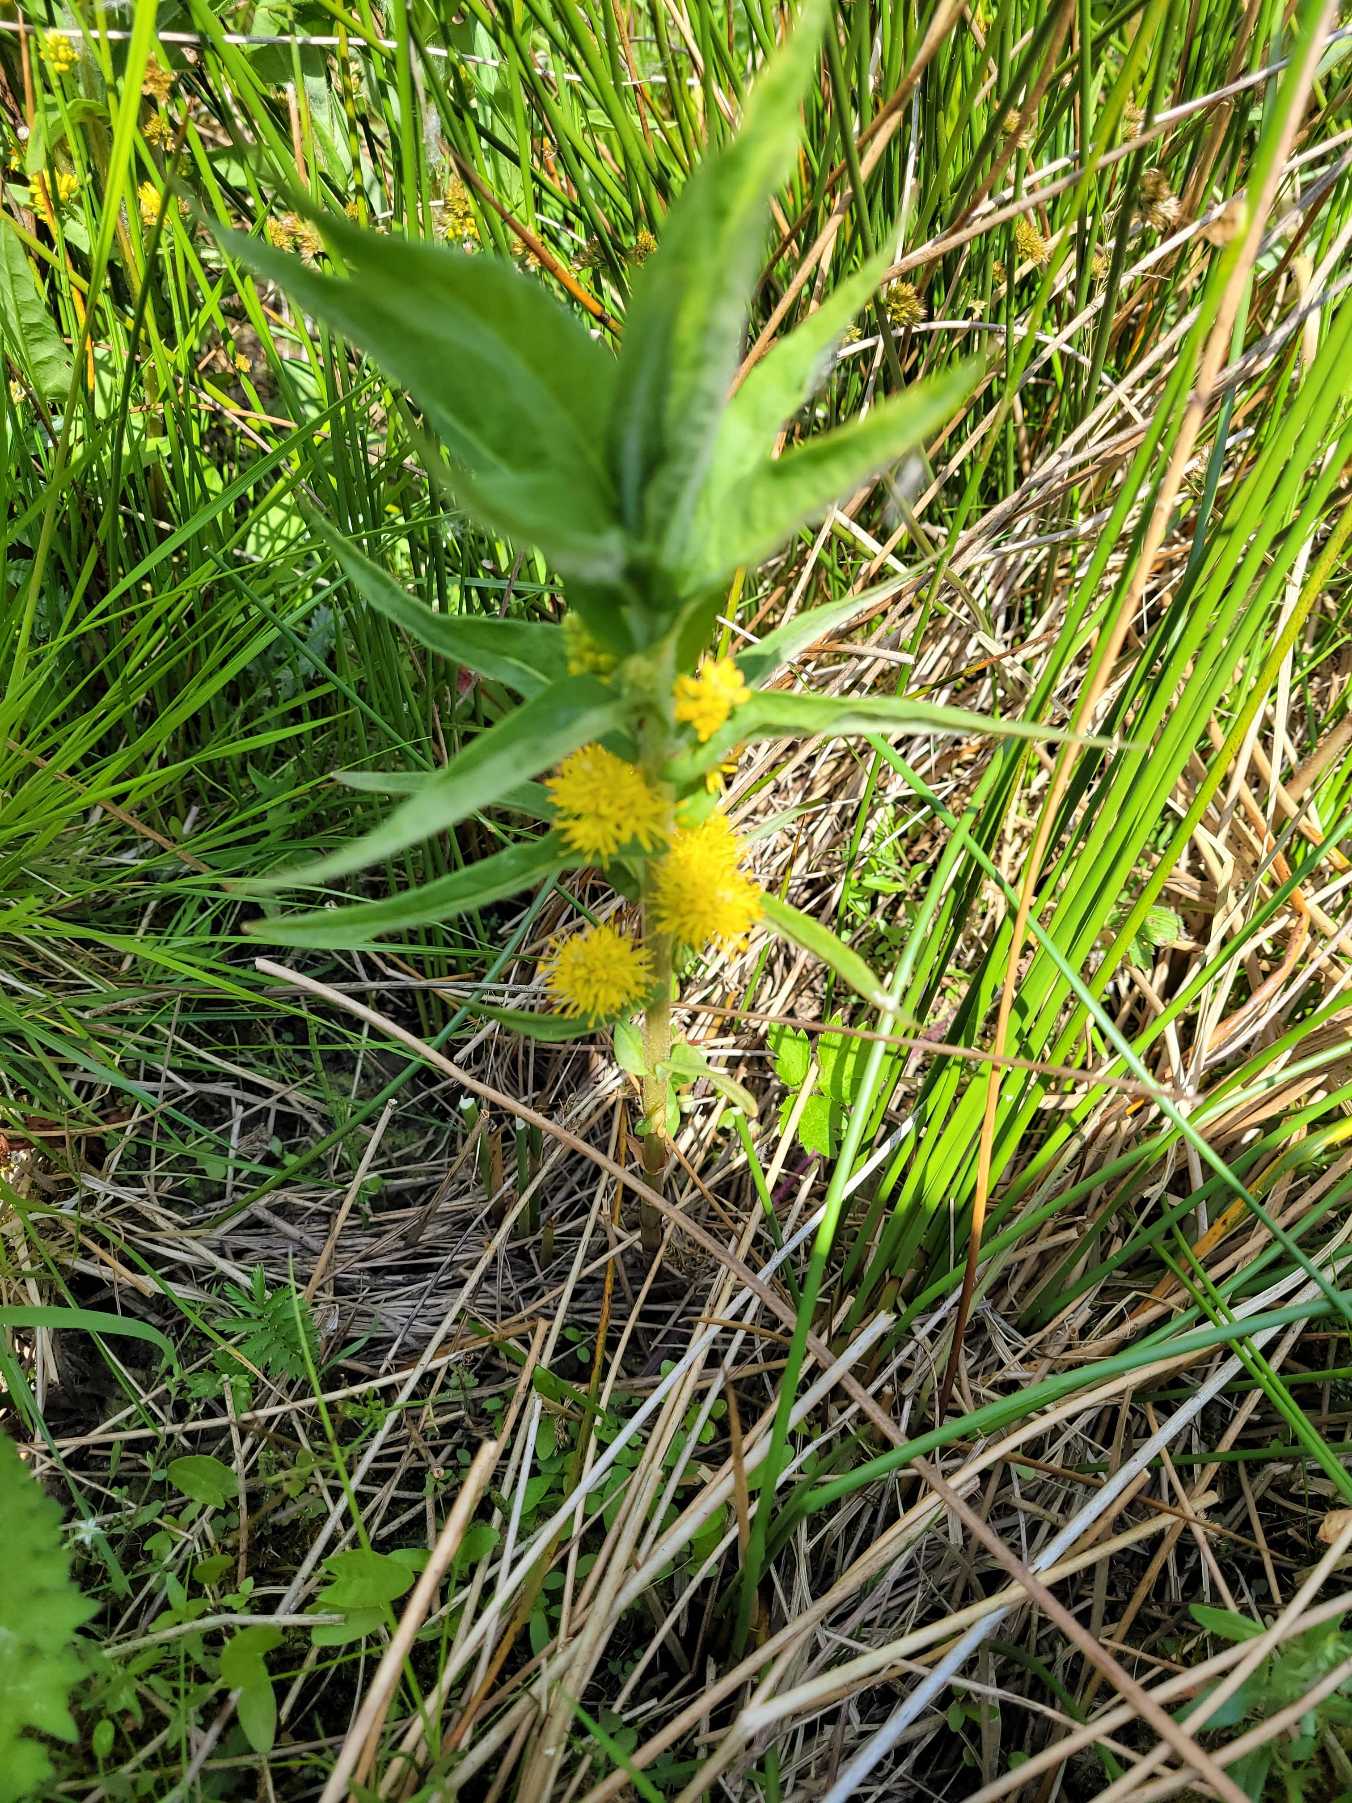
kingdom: Plantae
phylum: Tracheophyta
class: Magnoliopsida
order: Ericales
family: Primulaceae
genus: Lysimachia
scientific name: Lysimachia thyrsiflora
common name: Dusk-fredløs
